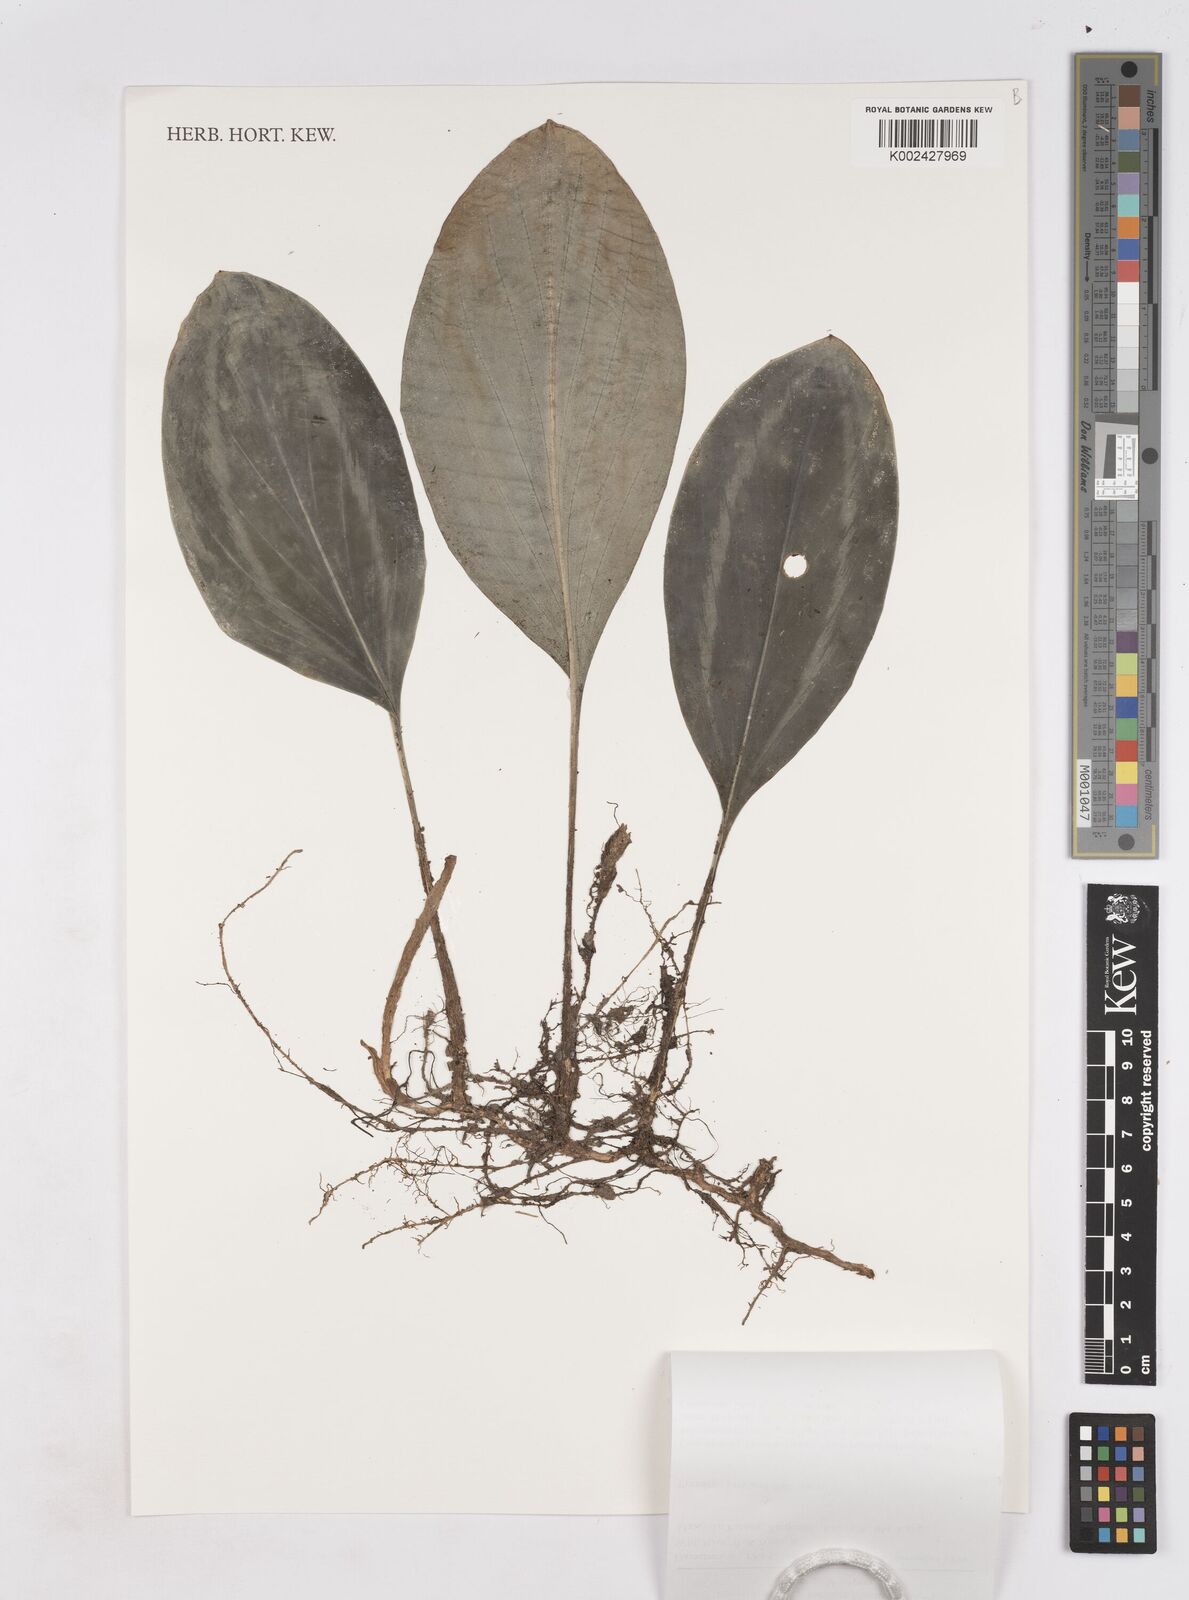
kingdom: Plantae
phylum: Tracheophyta
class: Liliopsida
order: Zingiberales
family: Zingiberaceae
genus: Scaphochlamys
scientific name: Scaphochlamys pennipicta
